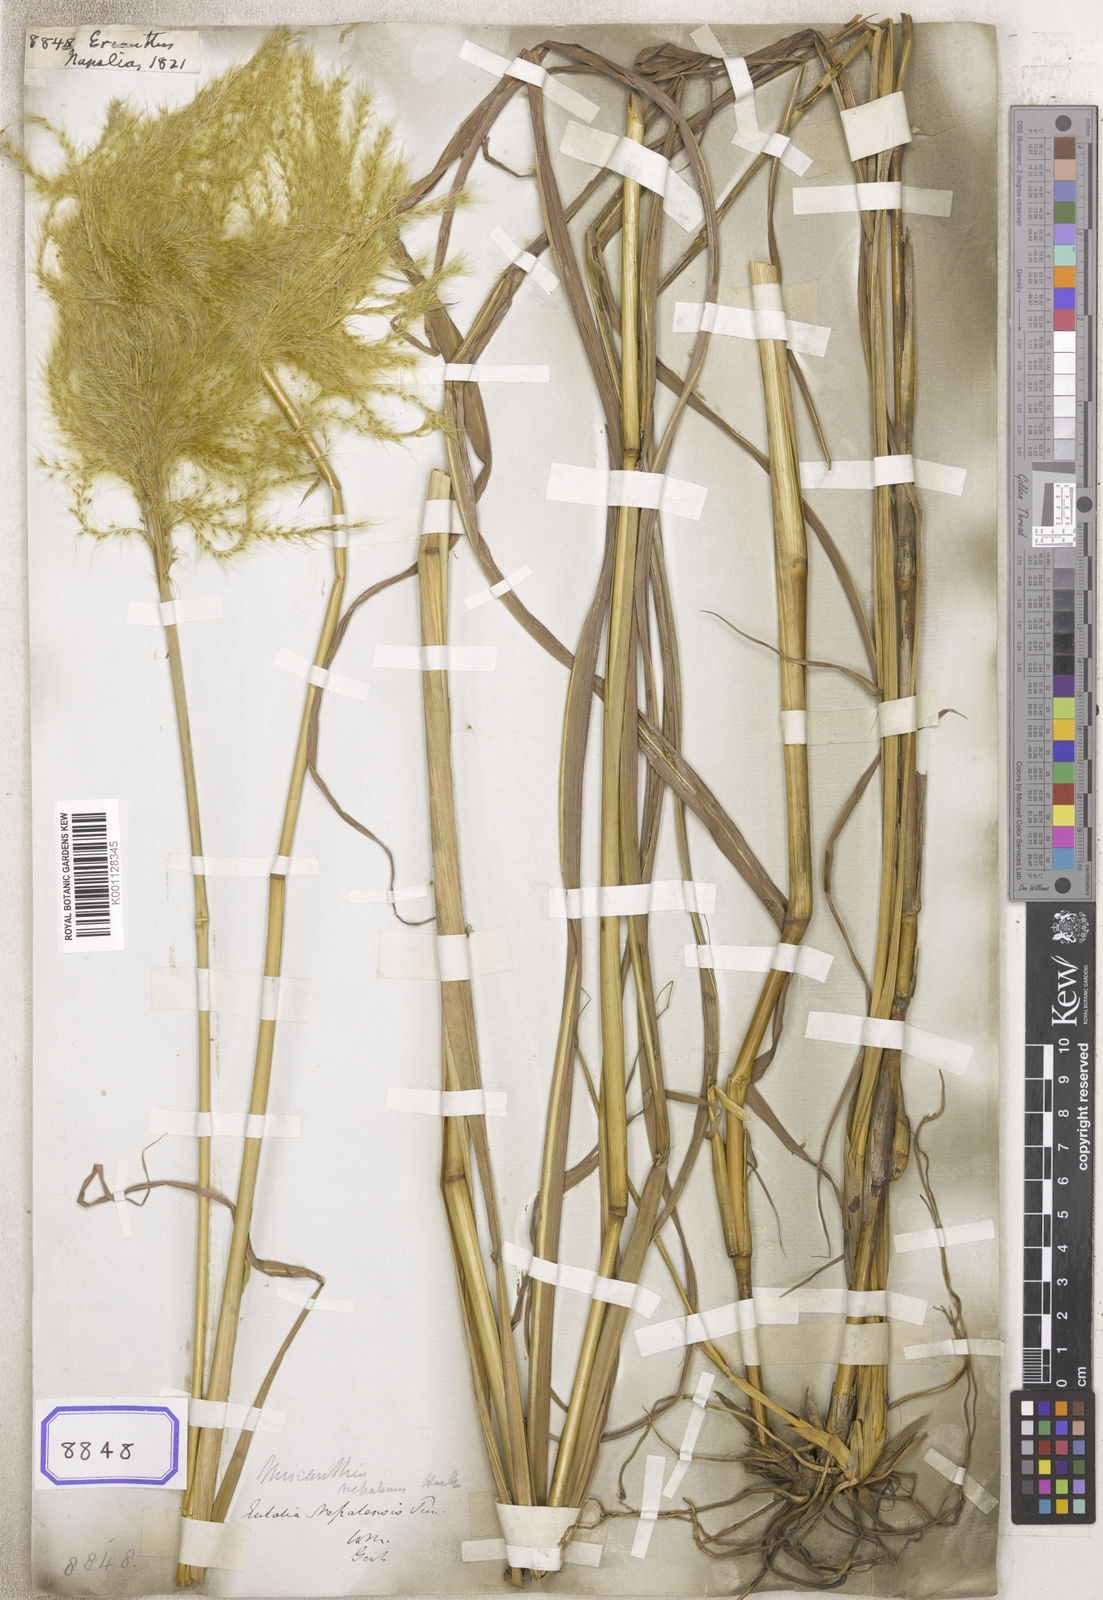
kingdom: Plantae
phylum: Tracheophyta
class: Liliopsida
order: Poales
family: Poaceae
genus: Erianthus
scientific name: Erianthus
